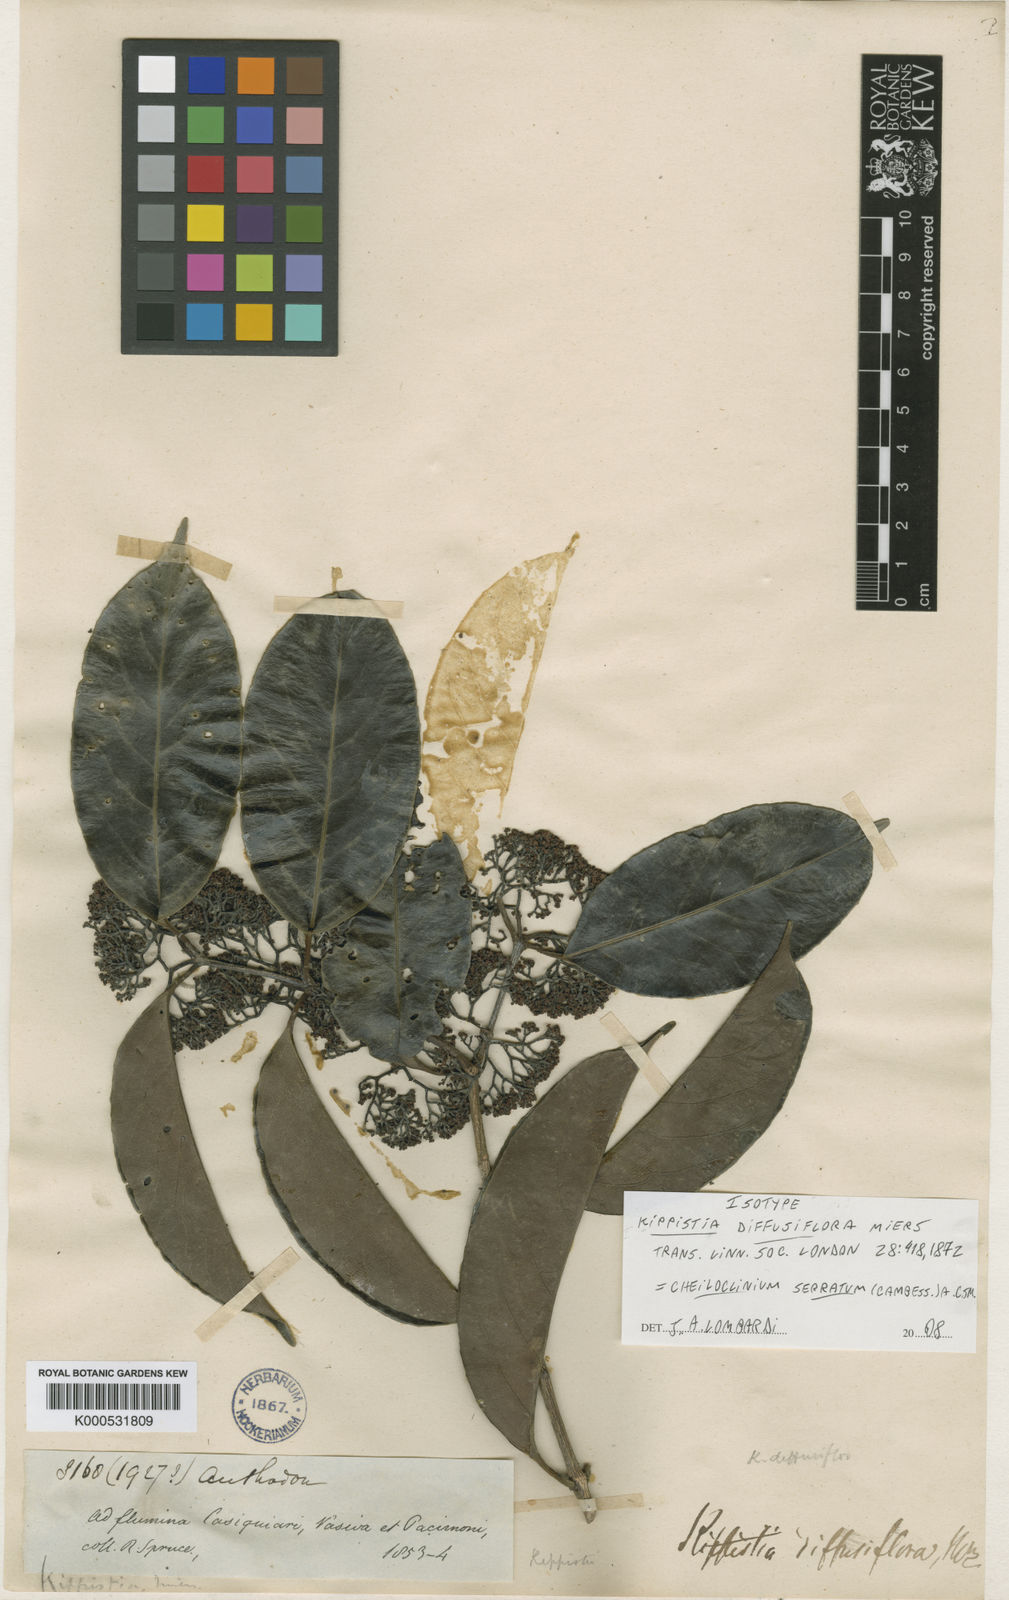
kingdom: Plantae
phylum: Tracheophyta
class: Magnoliopsida
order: Celastrales
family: Celastraceae
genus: Cheiloclinium
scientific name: Cheiloclinium serratum
